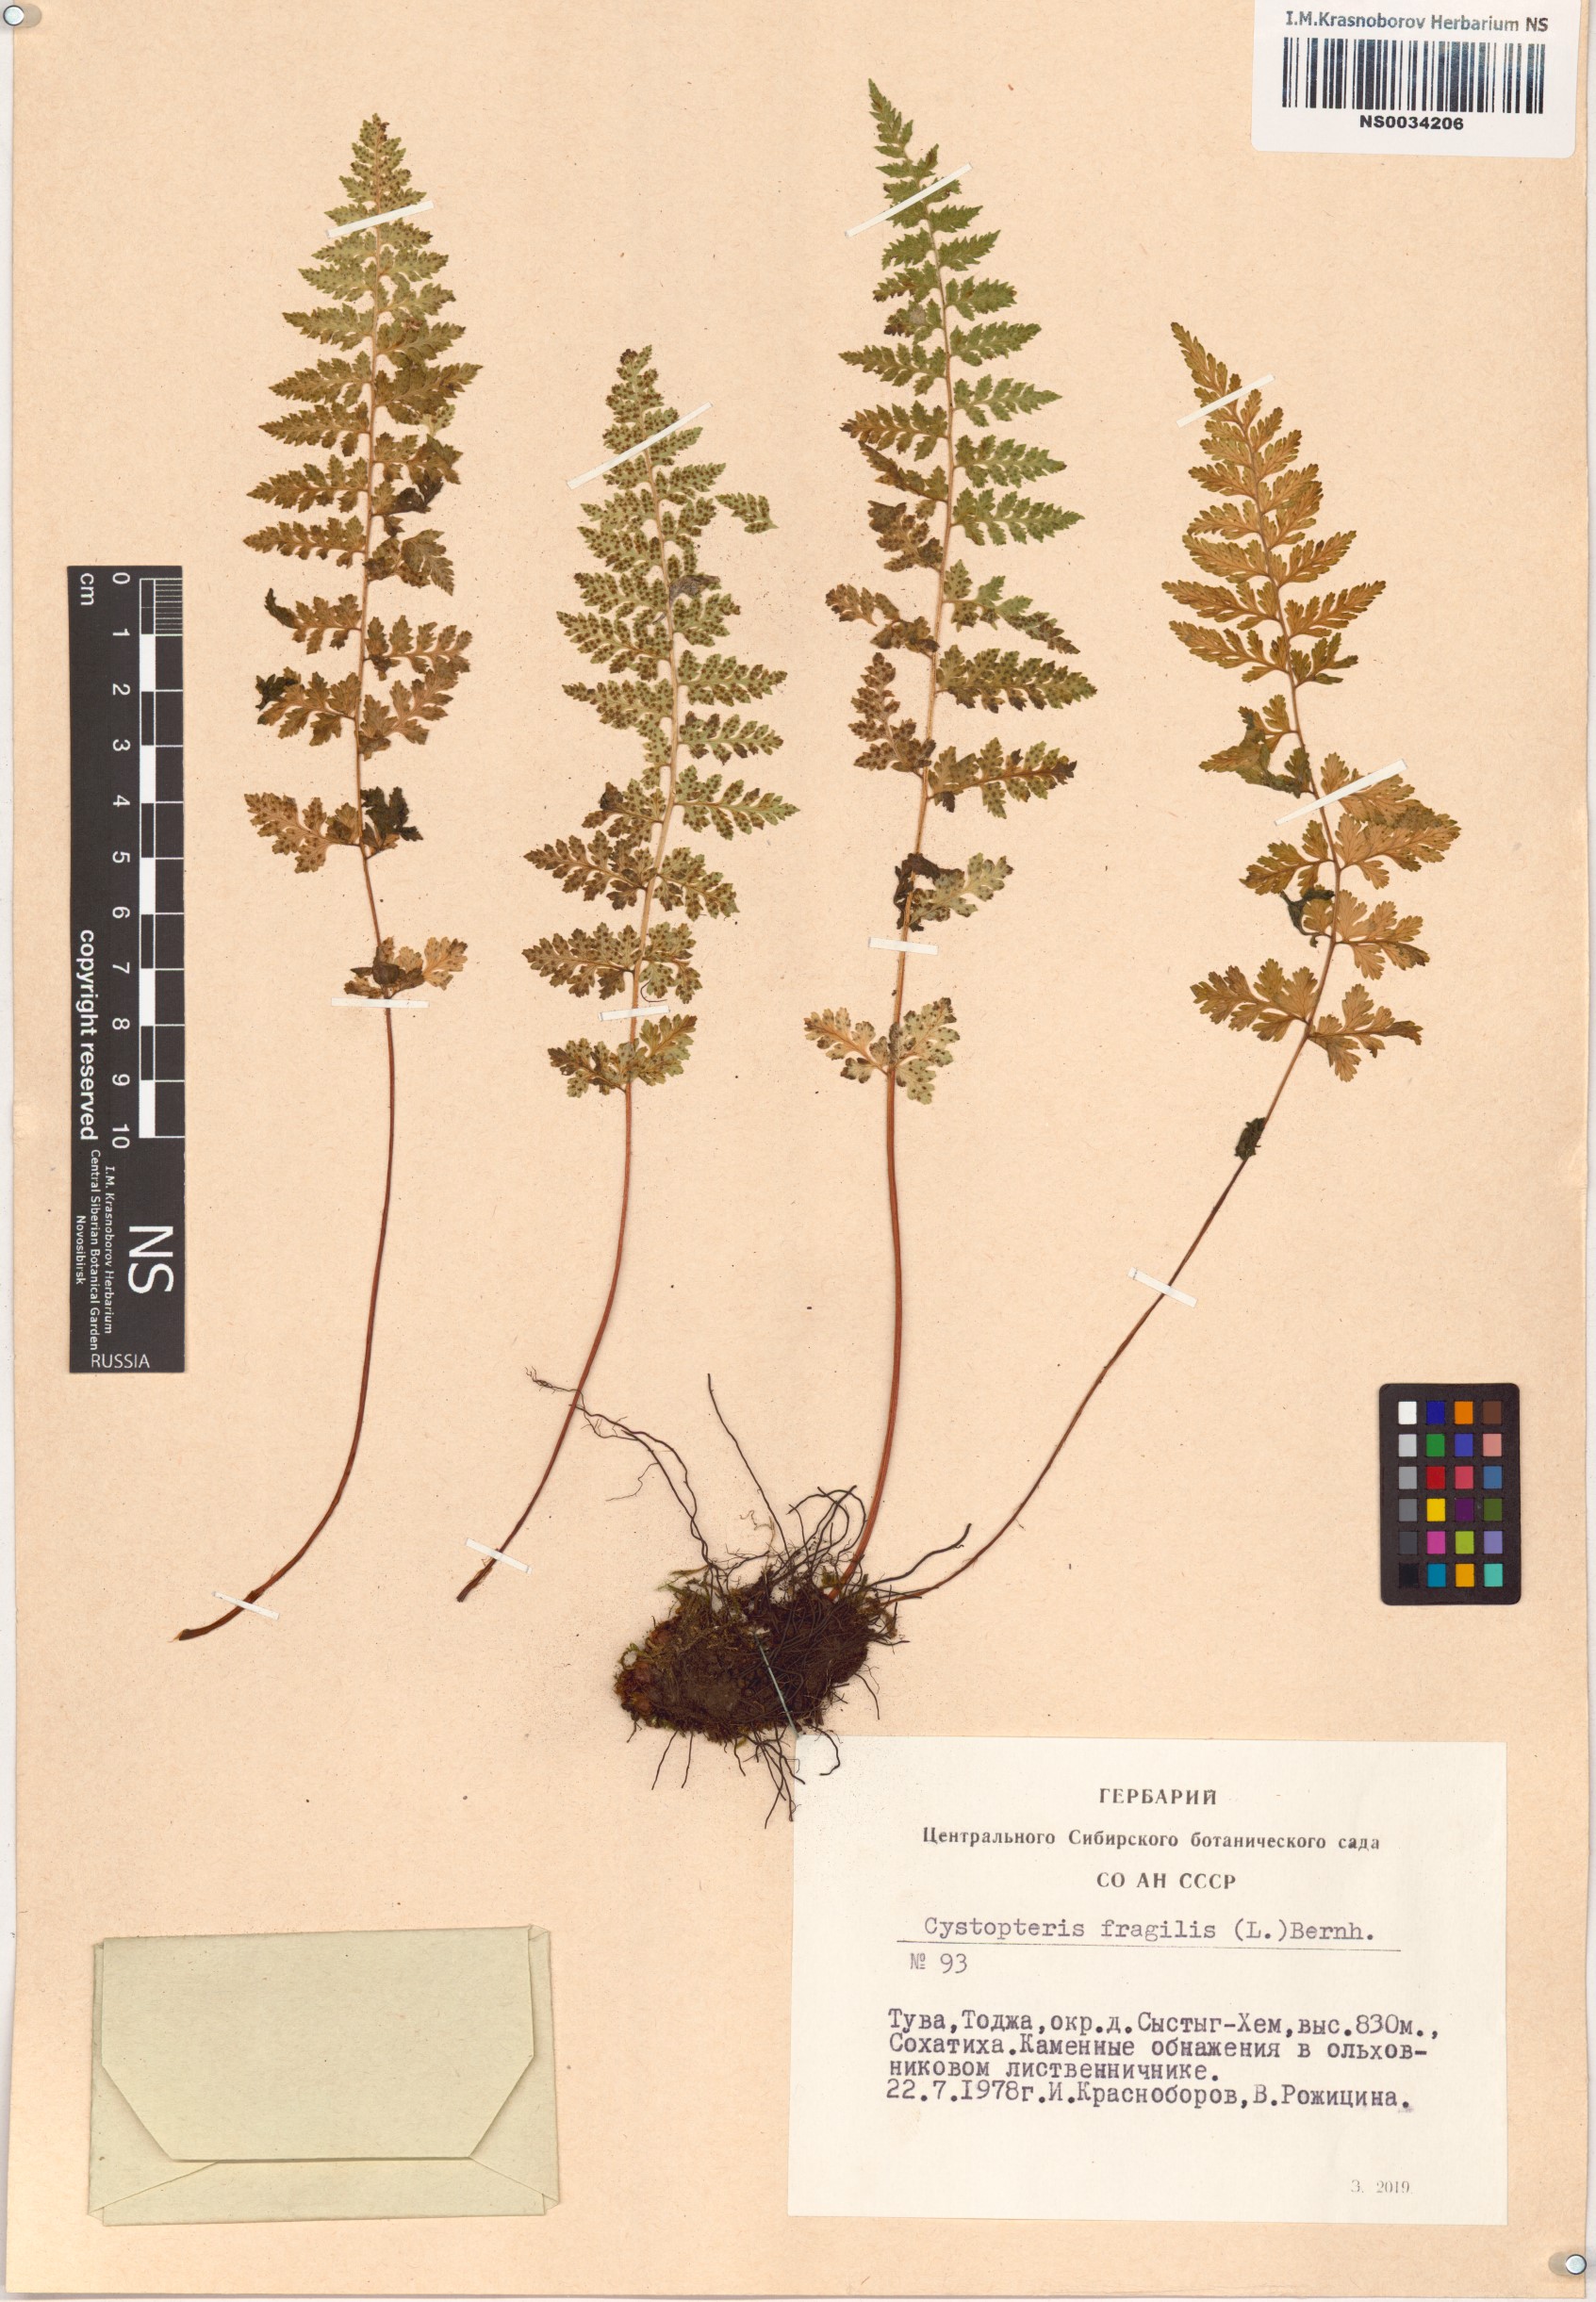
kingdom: Plantae
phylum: Tracheophyta
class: Polypodiopsida
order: Polypodiales
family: Cystopteridaceae
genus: Cystopteris
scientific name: Cystopteris fragilis
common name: Brittle bladder fern
